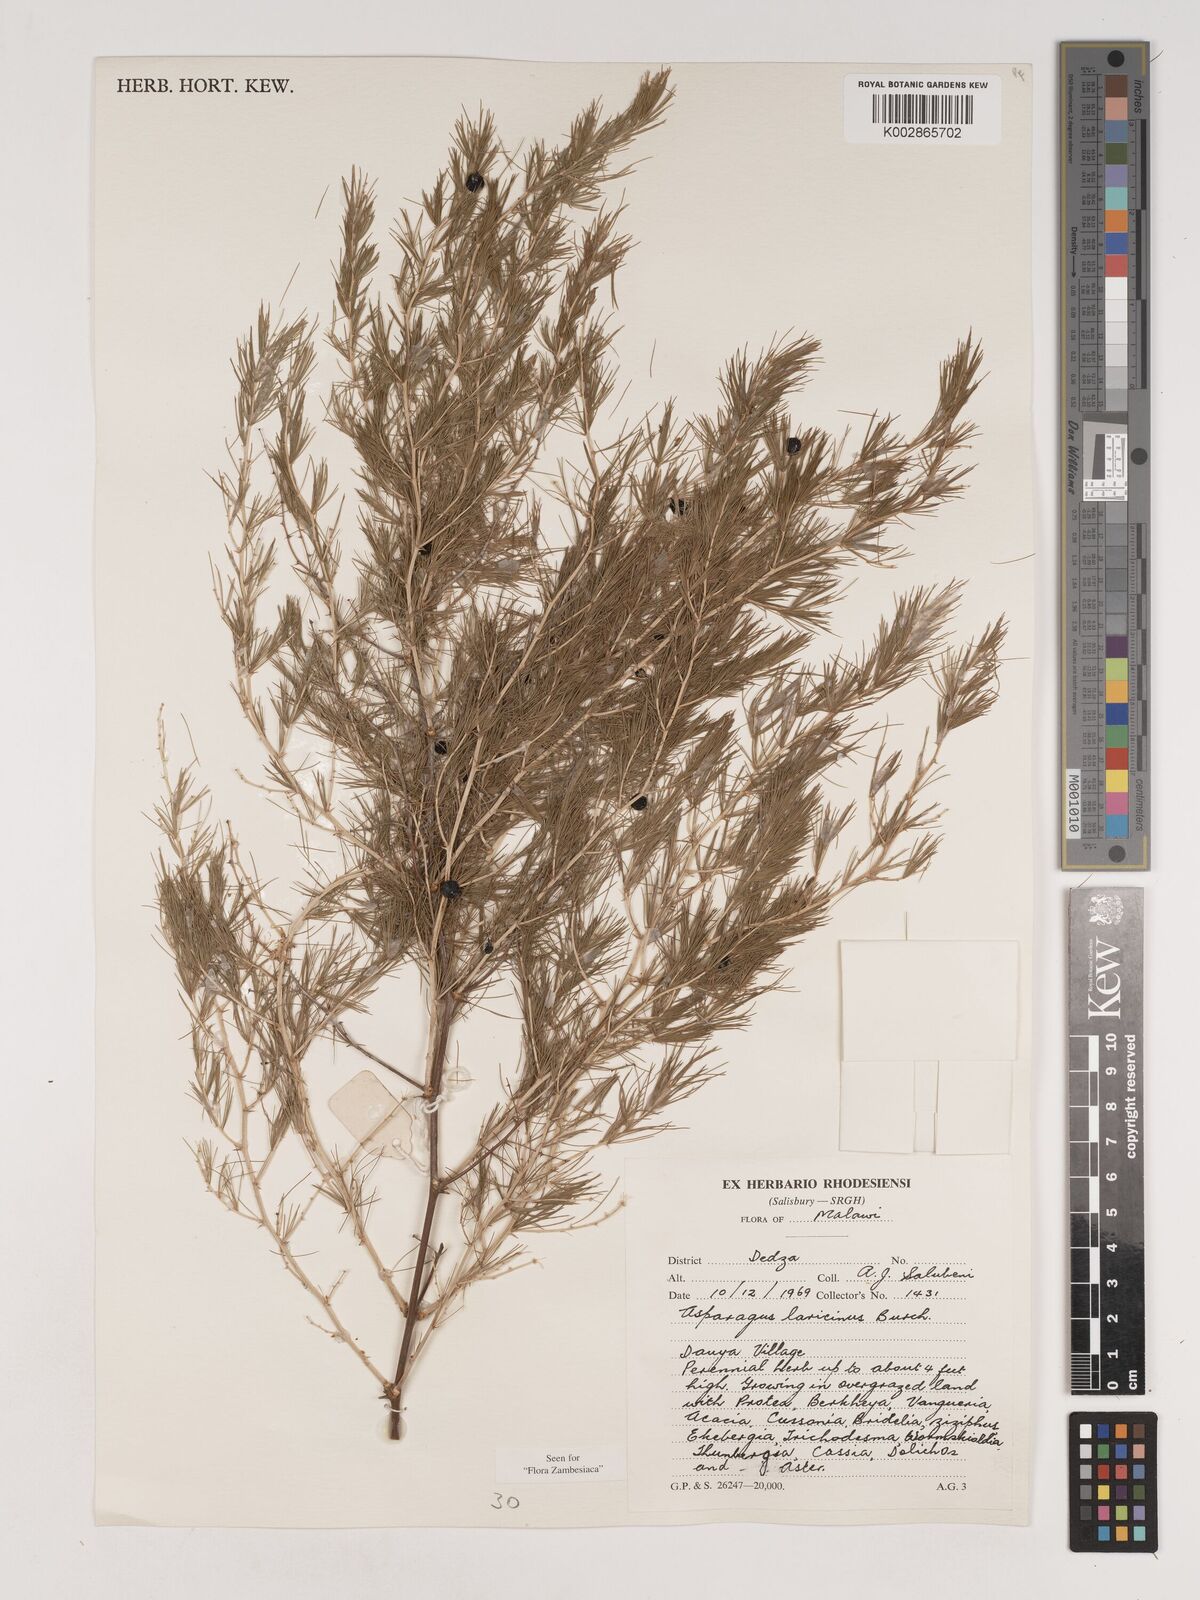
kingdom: Plantae
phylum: Tracheophyta
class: Liliopsida
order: Asparagales
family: Asparagaceae
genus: Asparagus
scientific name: Asparagus laricinus
